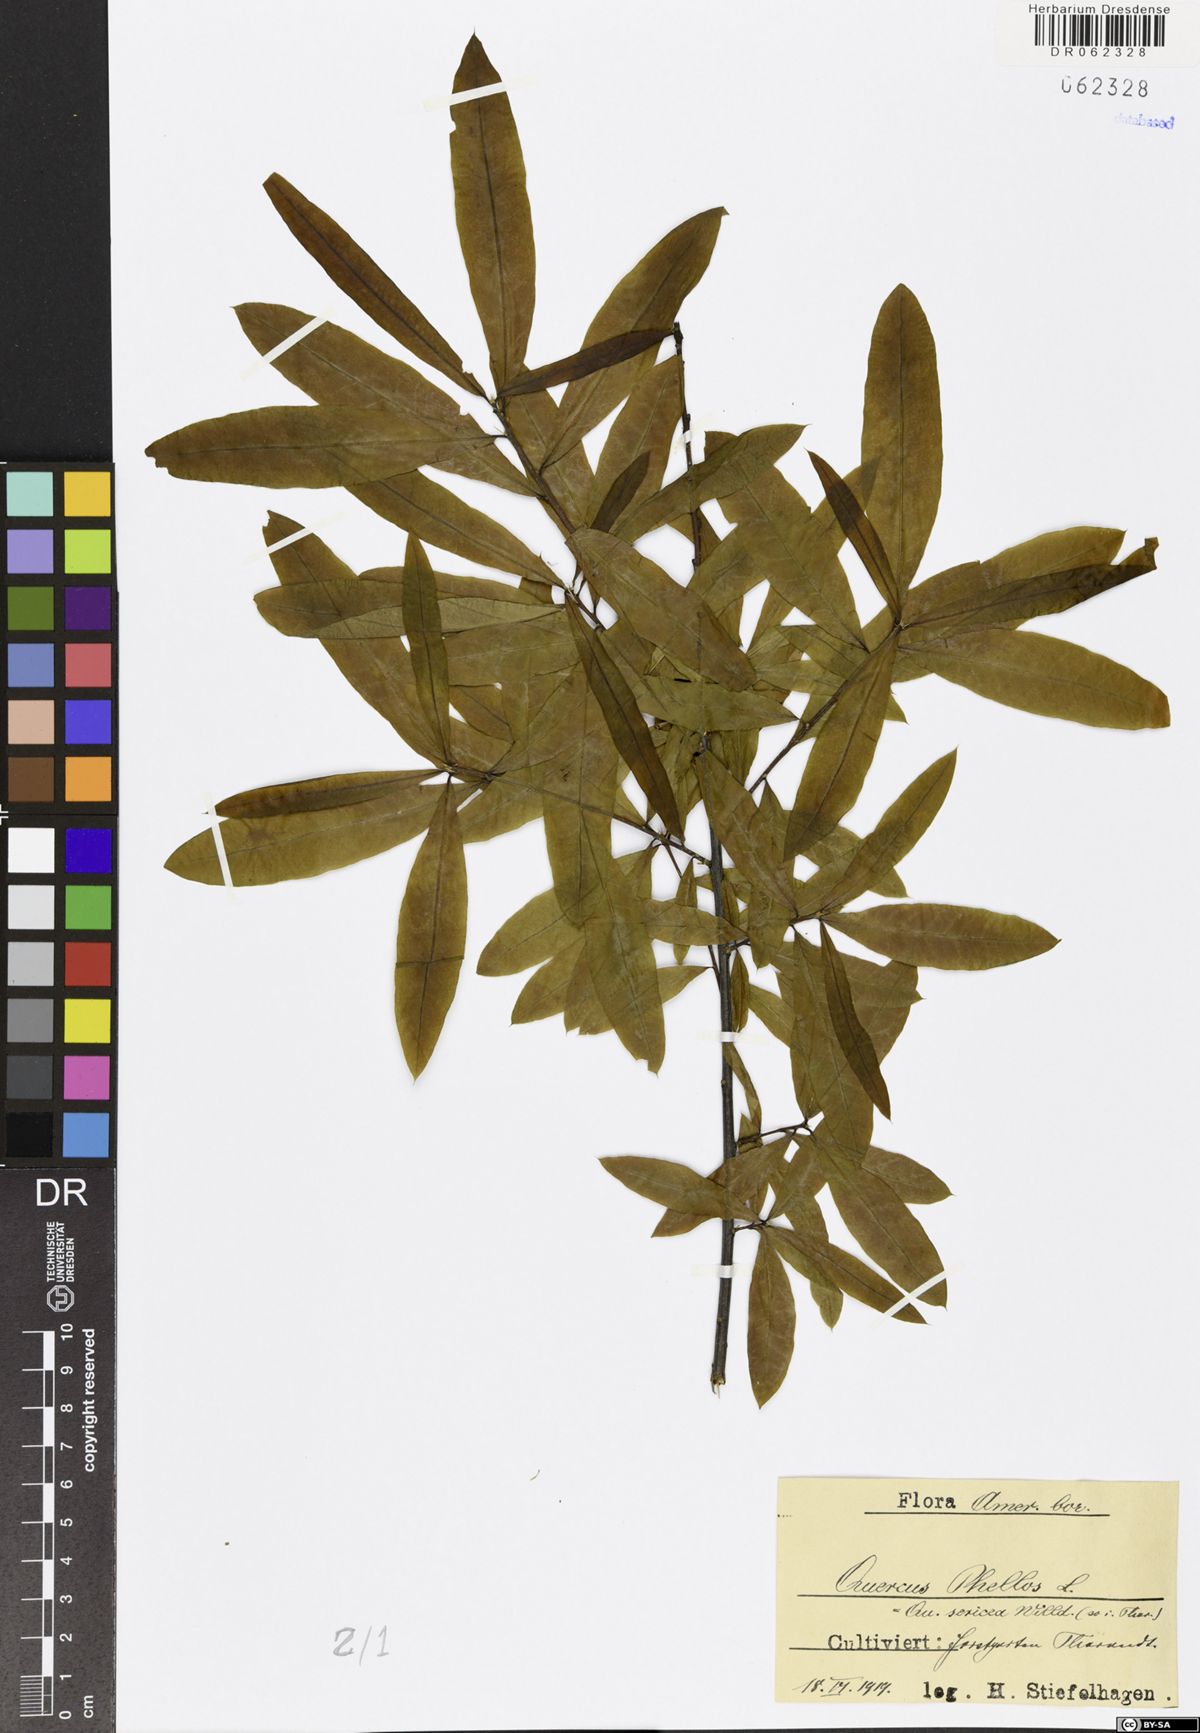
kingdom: Plantae
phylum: Tracheophyta
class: Magnoliopsida
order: Fagales
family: Fagaceae
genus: Quercus
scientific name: Quercus phellos
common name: Willow oak
